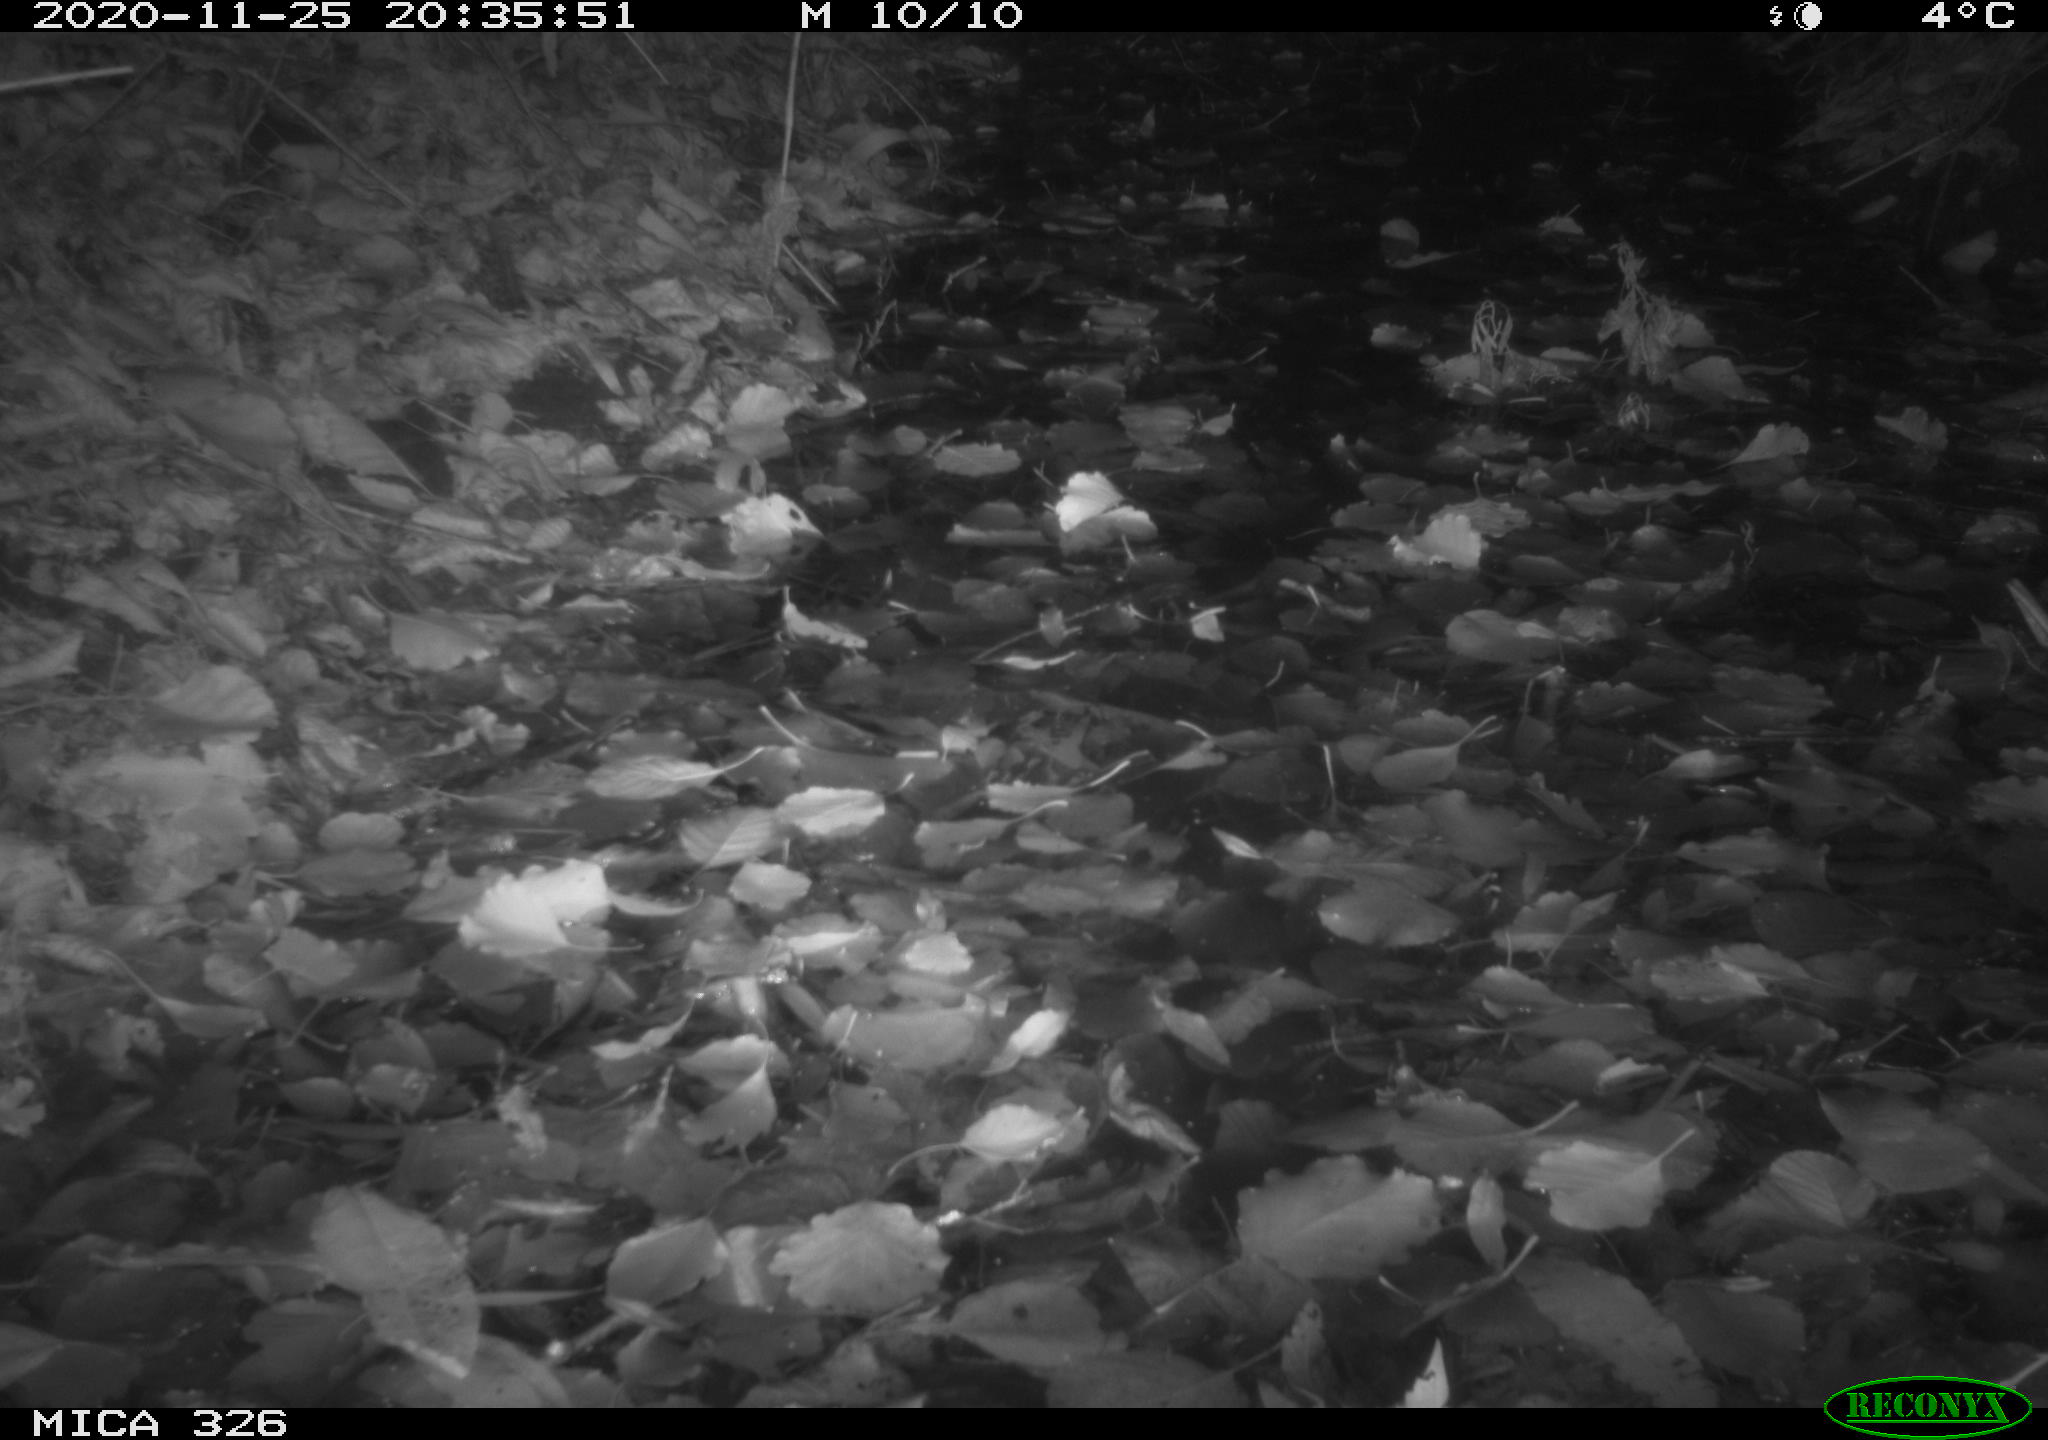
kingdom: Animalia
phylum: Chordata
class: Mammalia
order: Carnivora
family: Mustelidae
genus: Lutra
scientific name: Lutra lutra
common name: European otter
